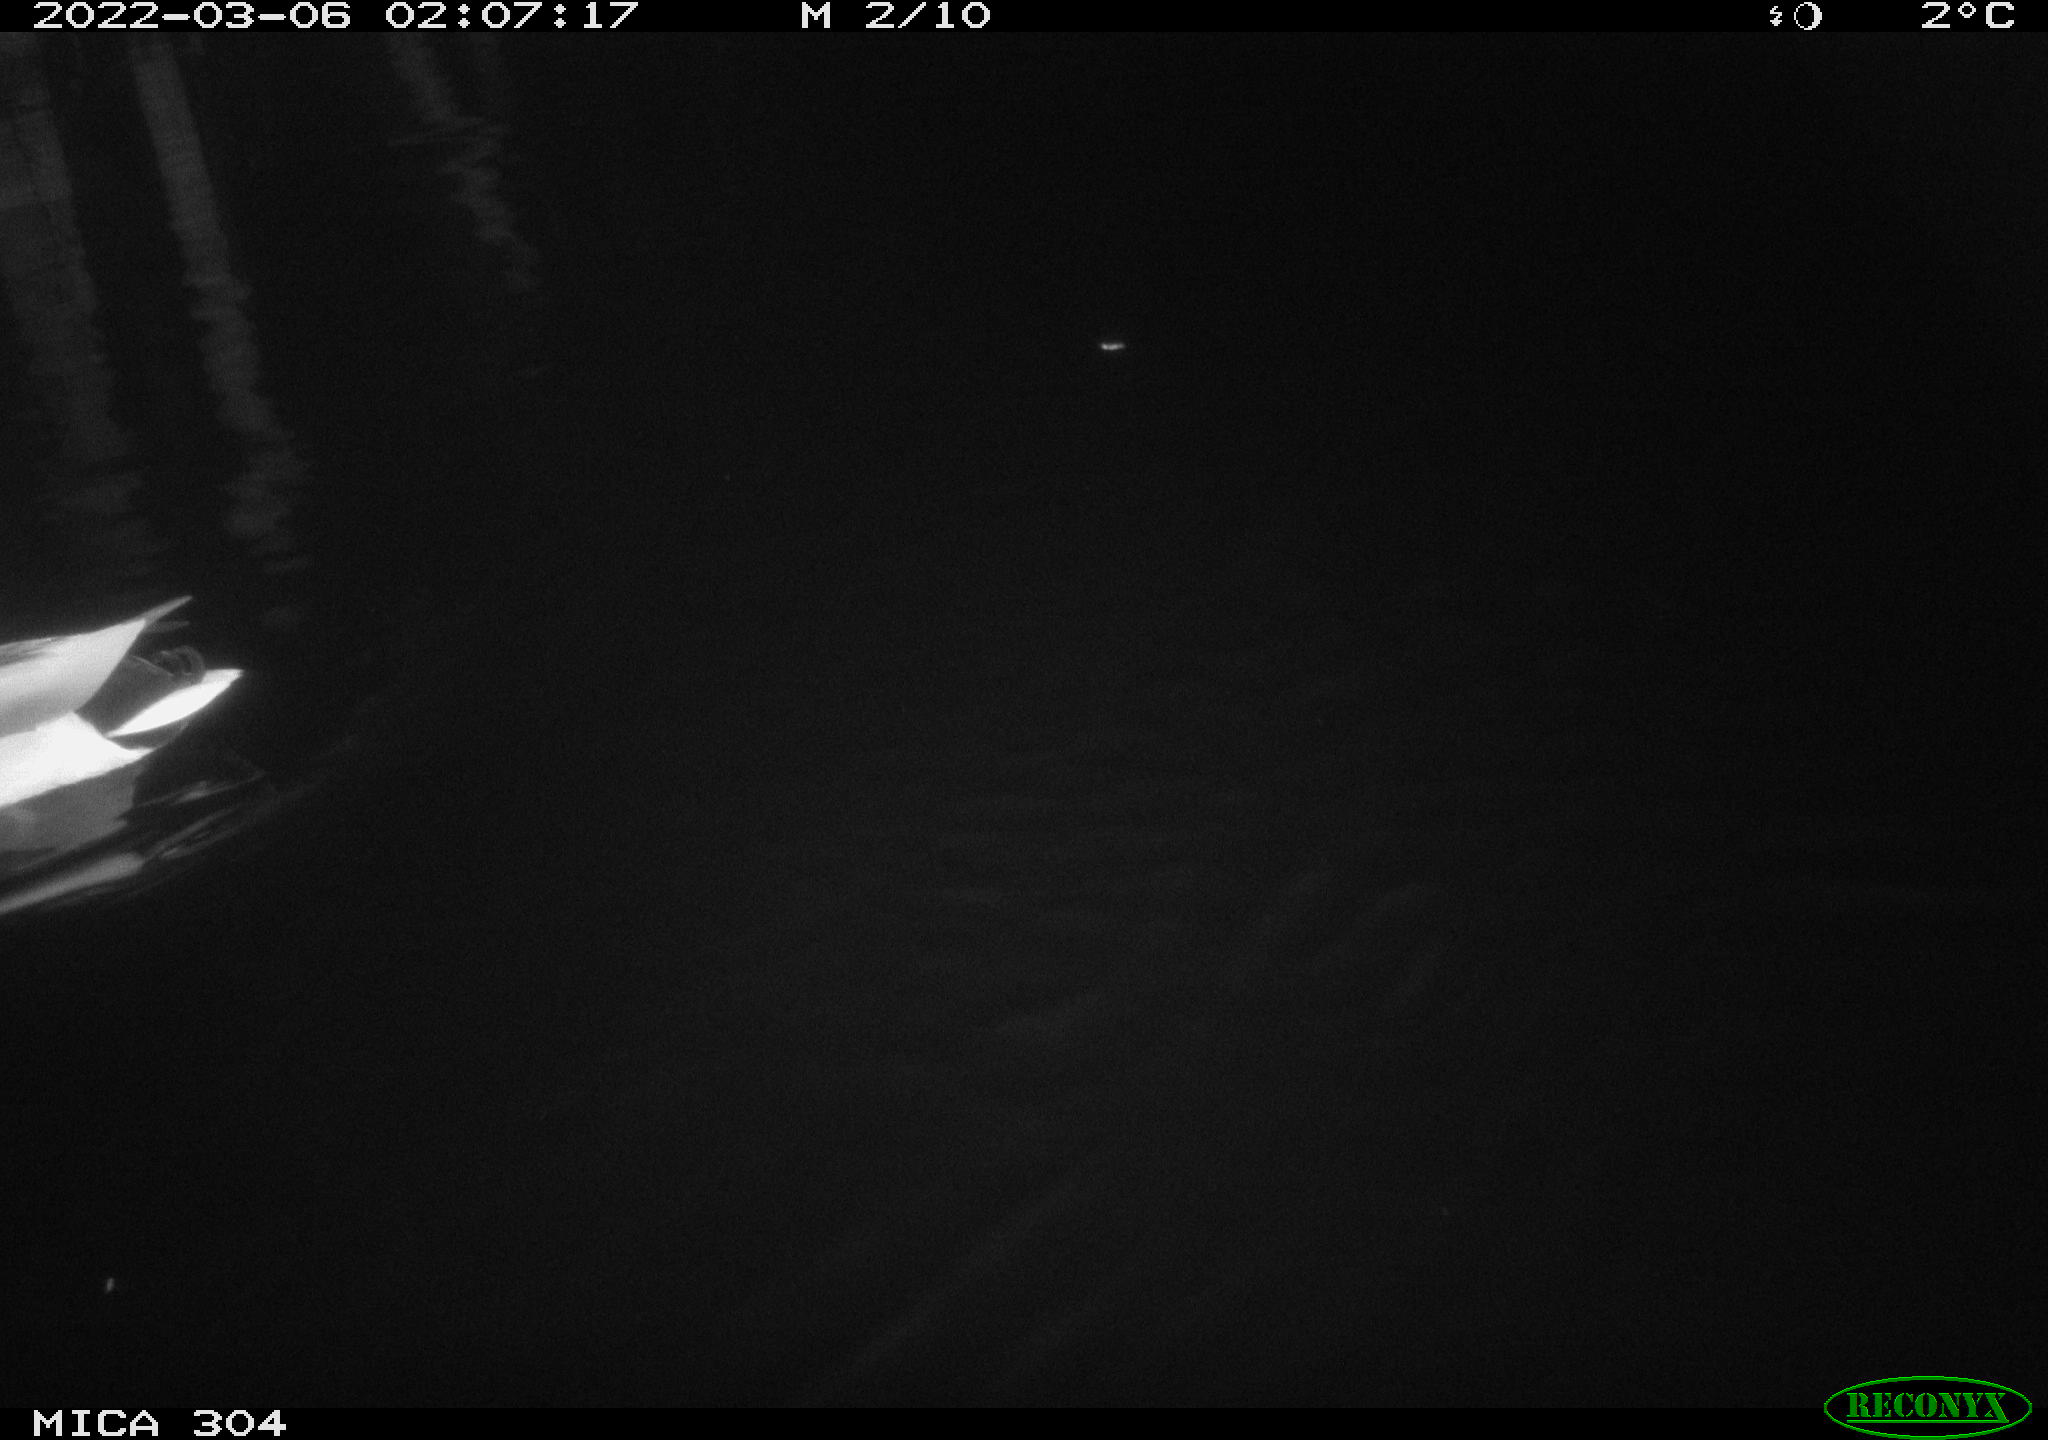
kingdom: Animalia
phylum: Chordata
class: Aves
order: Anseriformes
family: Anatidae
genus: Anas
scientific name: Anas platyrhynchos
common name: Mallard
